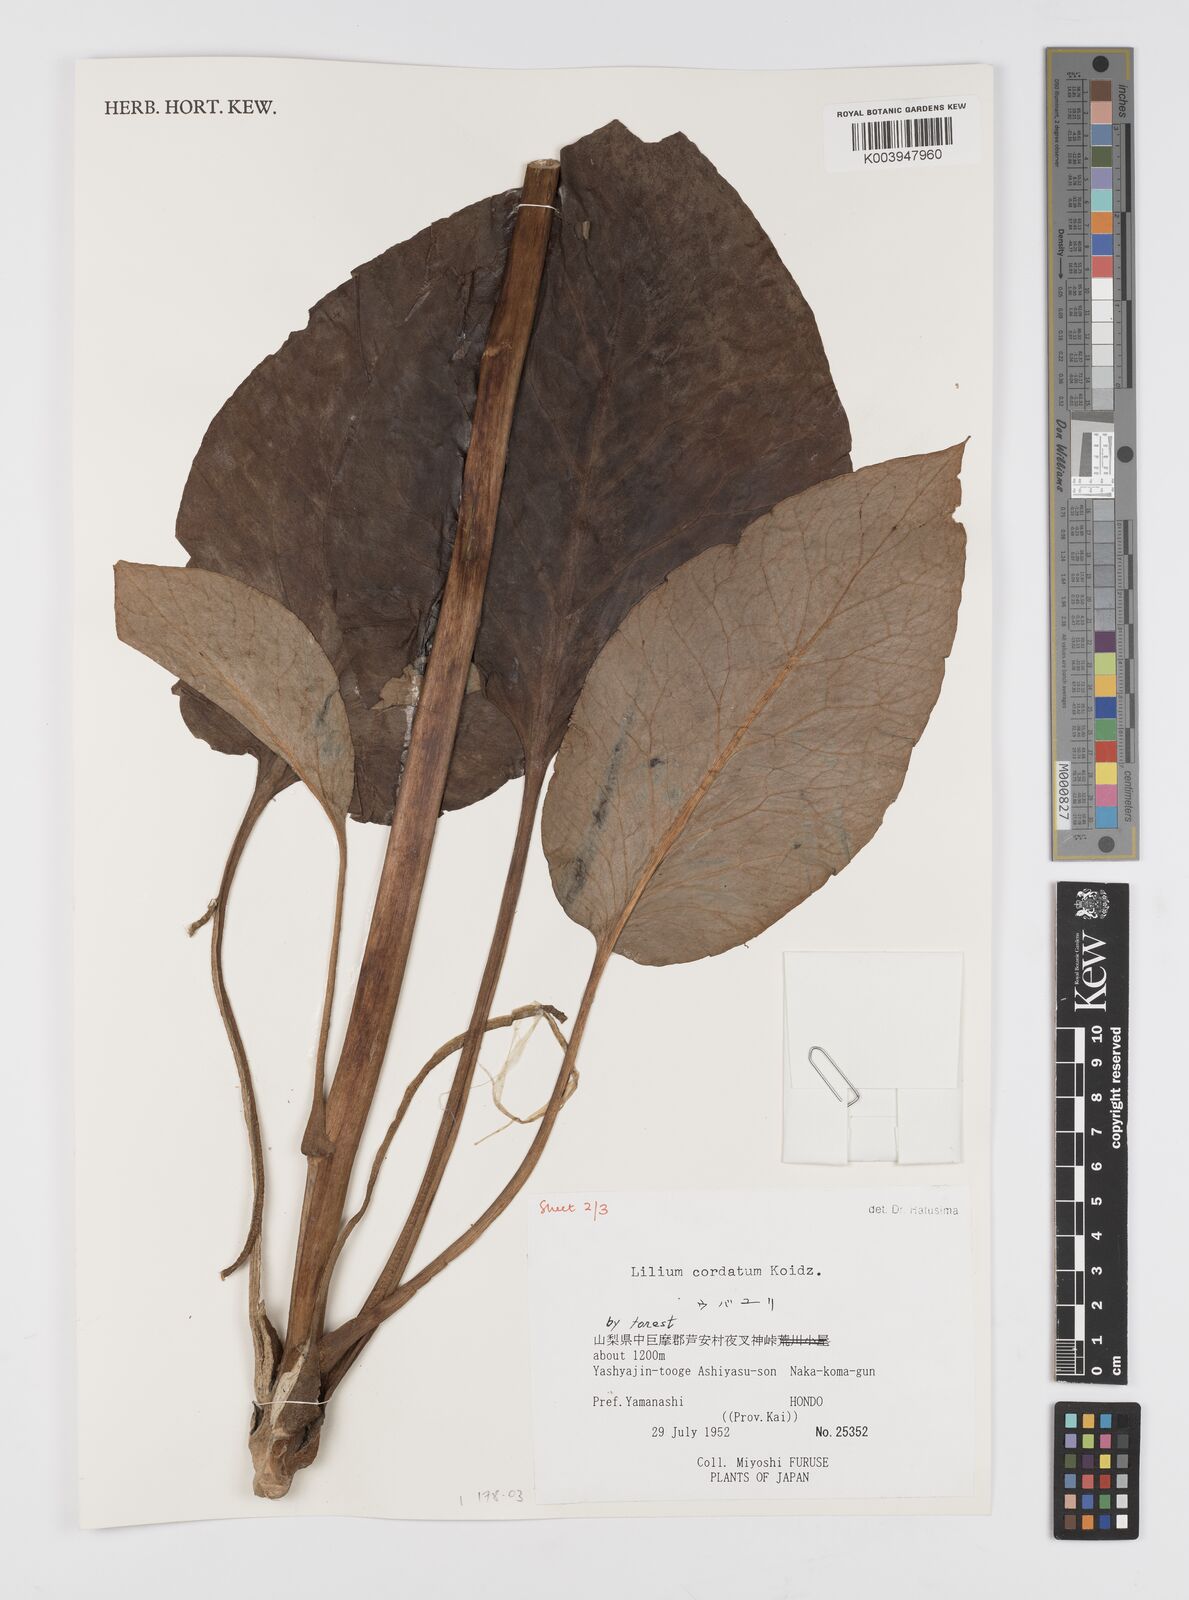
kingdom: Plantae
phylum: Tracheophyta
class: Liliopsida
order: Liliales
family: Liliaceae
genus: Cardiocrinum
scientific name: Cardiocrinum cordatum
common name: Lily
